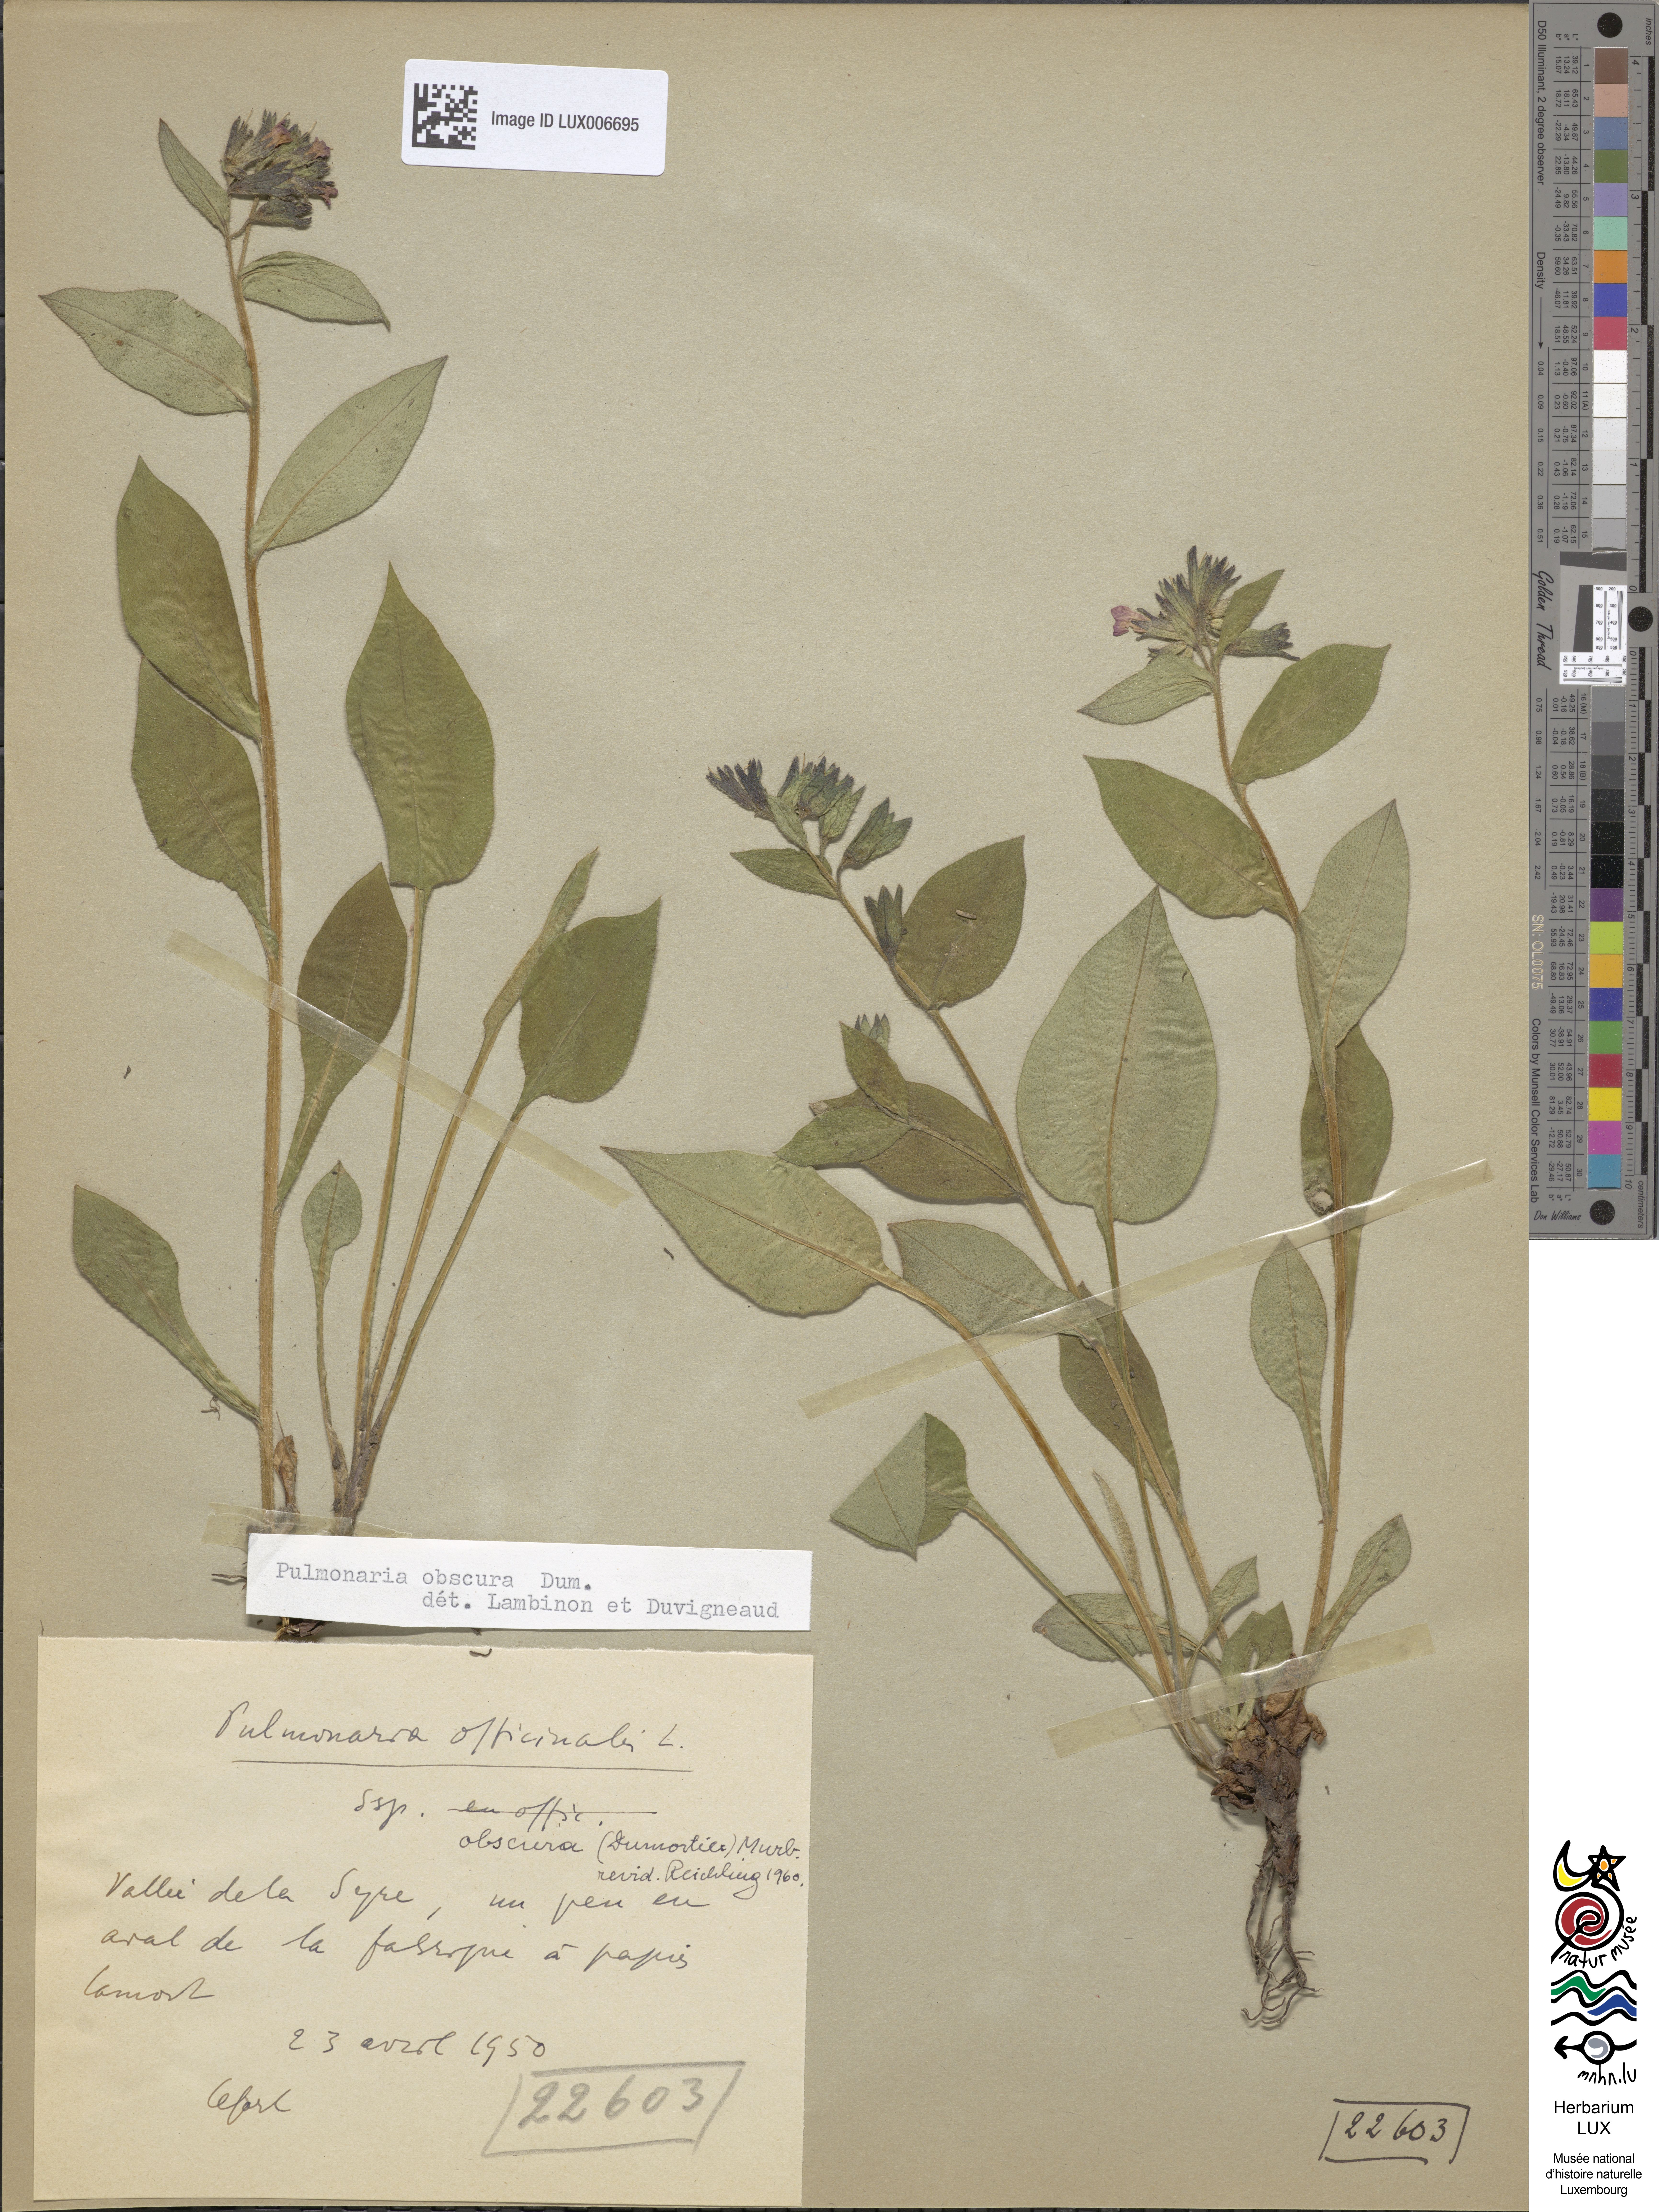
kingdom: Plantae
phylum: Tracheophyta
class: Magnoliopsida
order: Boraginales
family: Boraginaceae
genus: Pulmonaria
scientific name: Pulmonaria officinalis
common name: Lungwort
